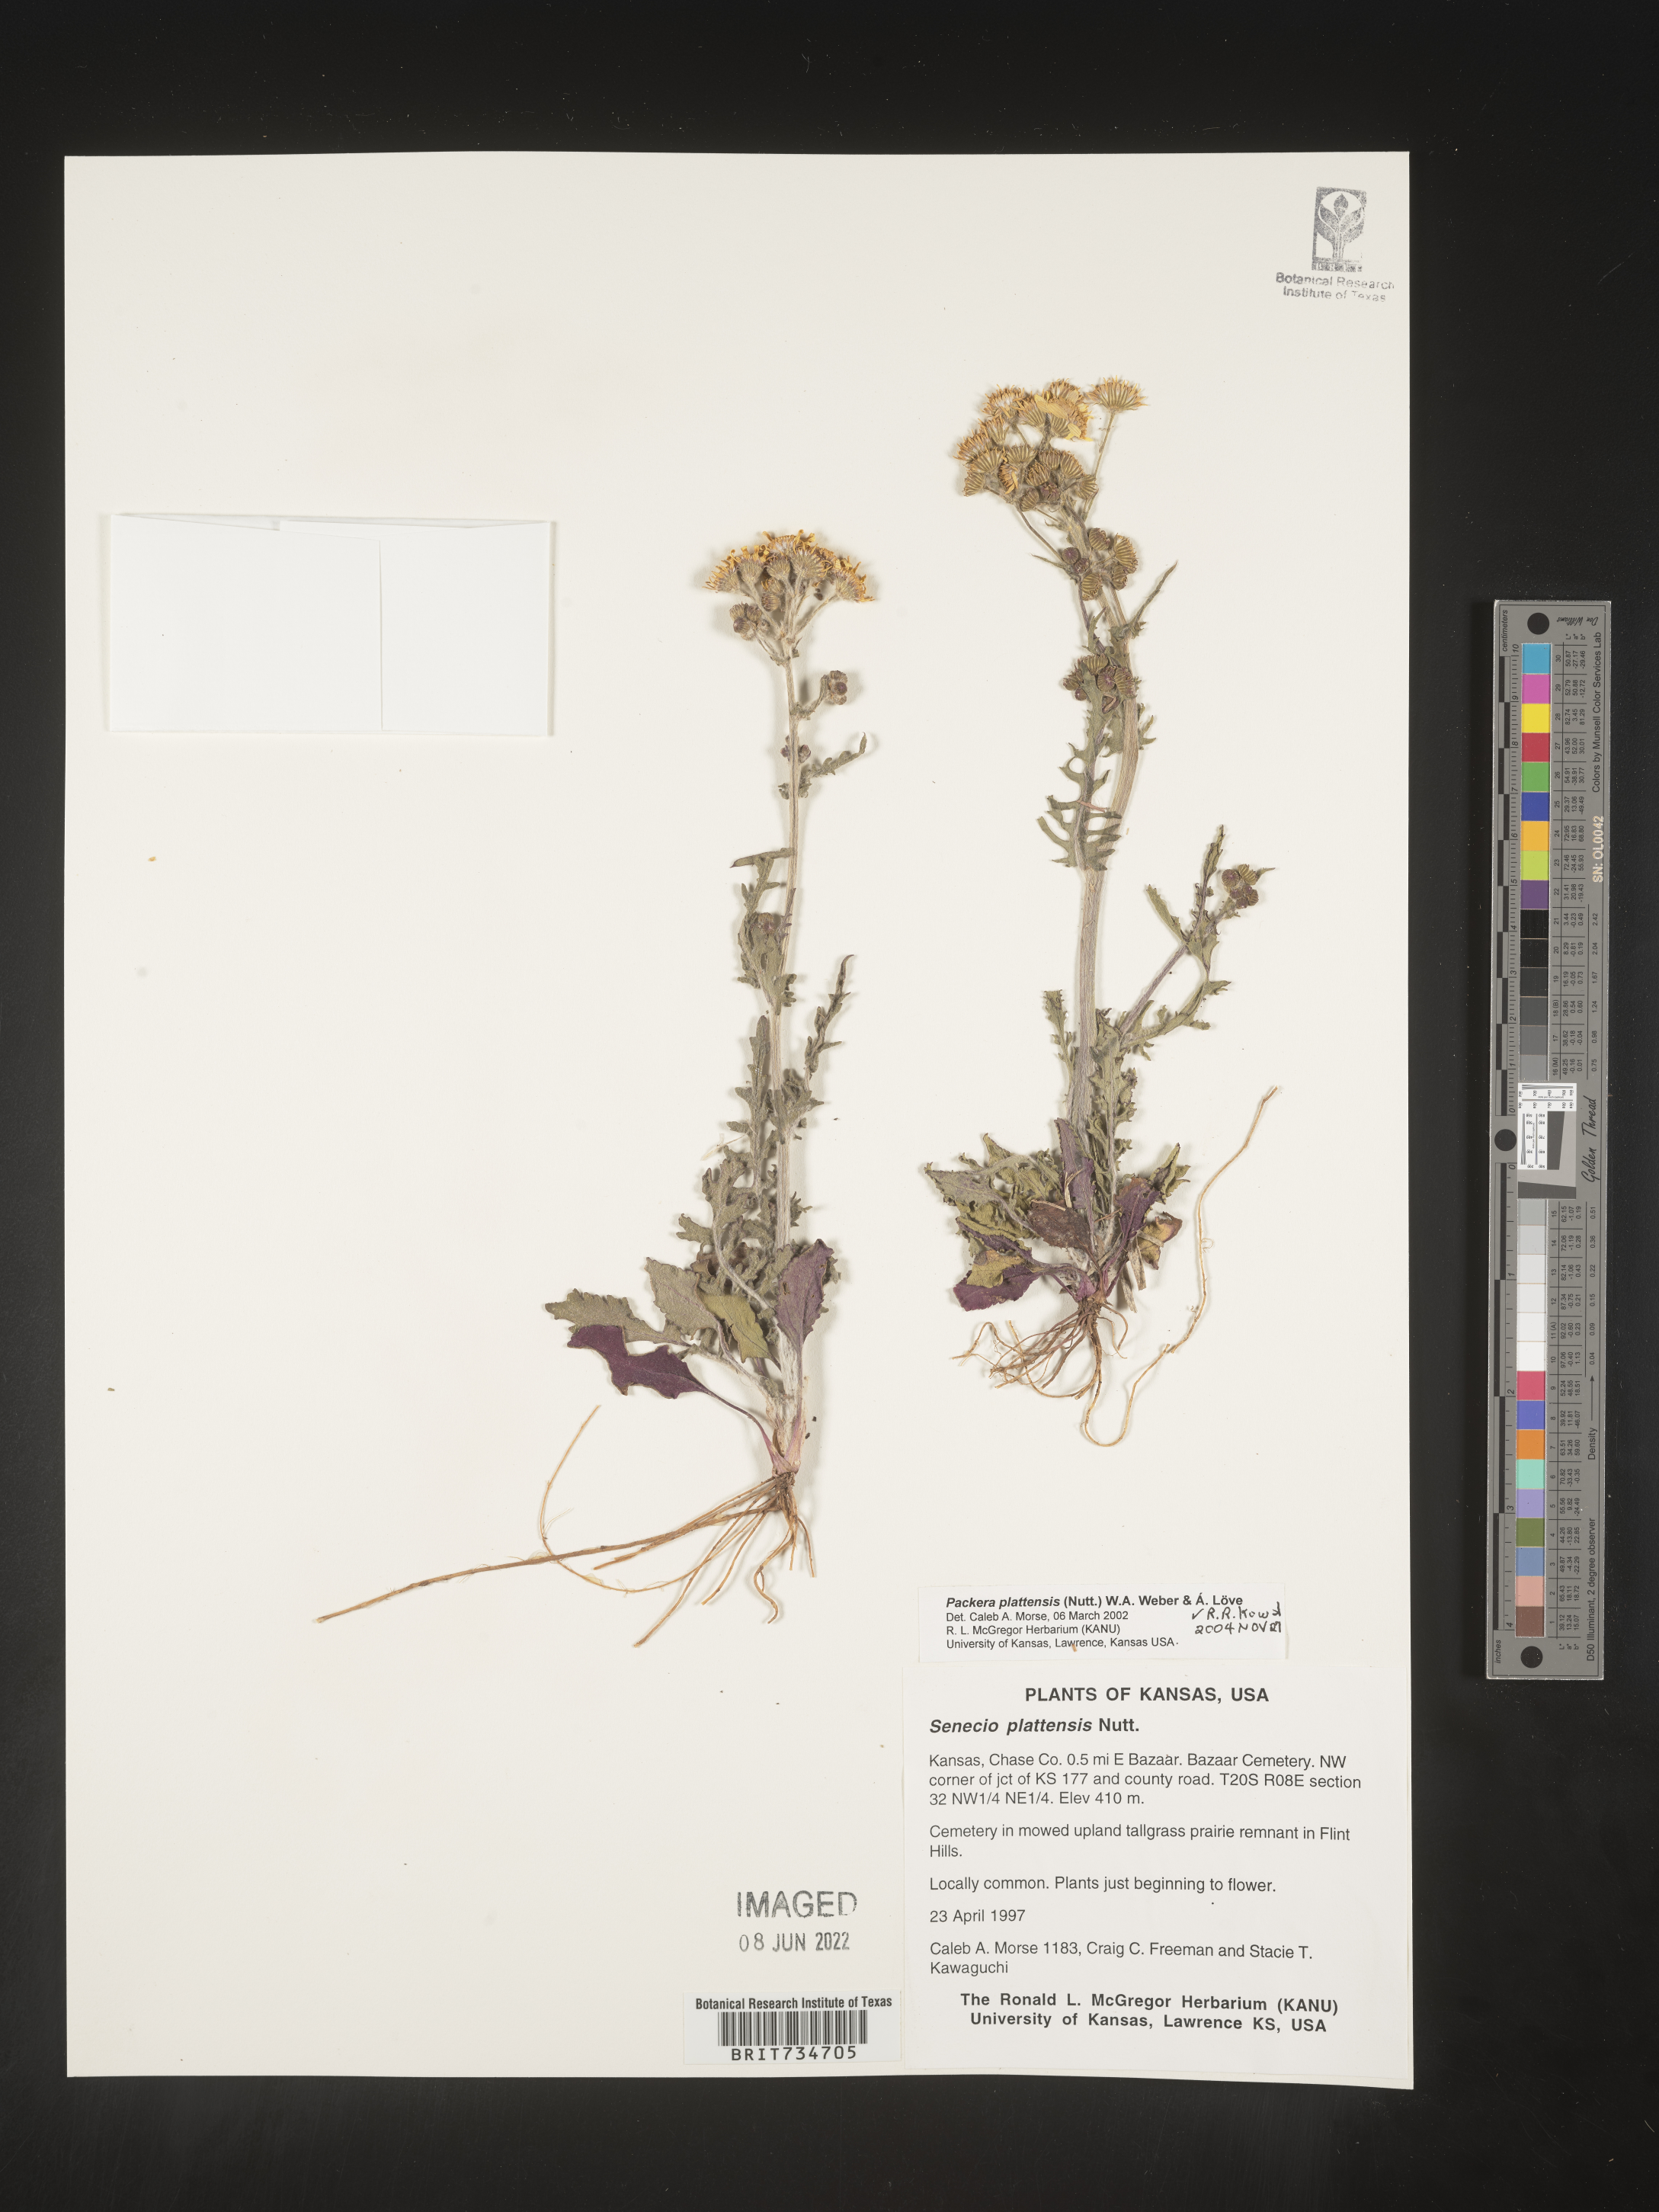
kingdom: Plantae
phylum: Tracheophyta
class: Magnoliopsida
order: Asterales
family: Asteraceae
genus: Packera
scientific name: Packera plattensis
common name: Prairie groundsel
